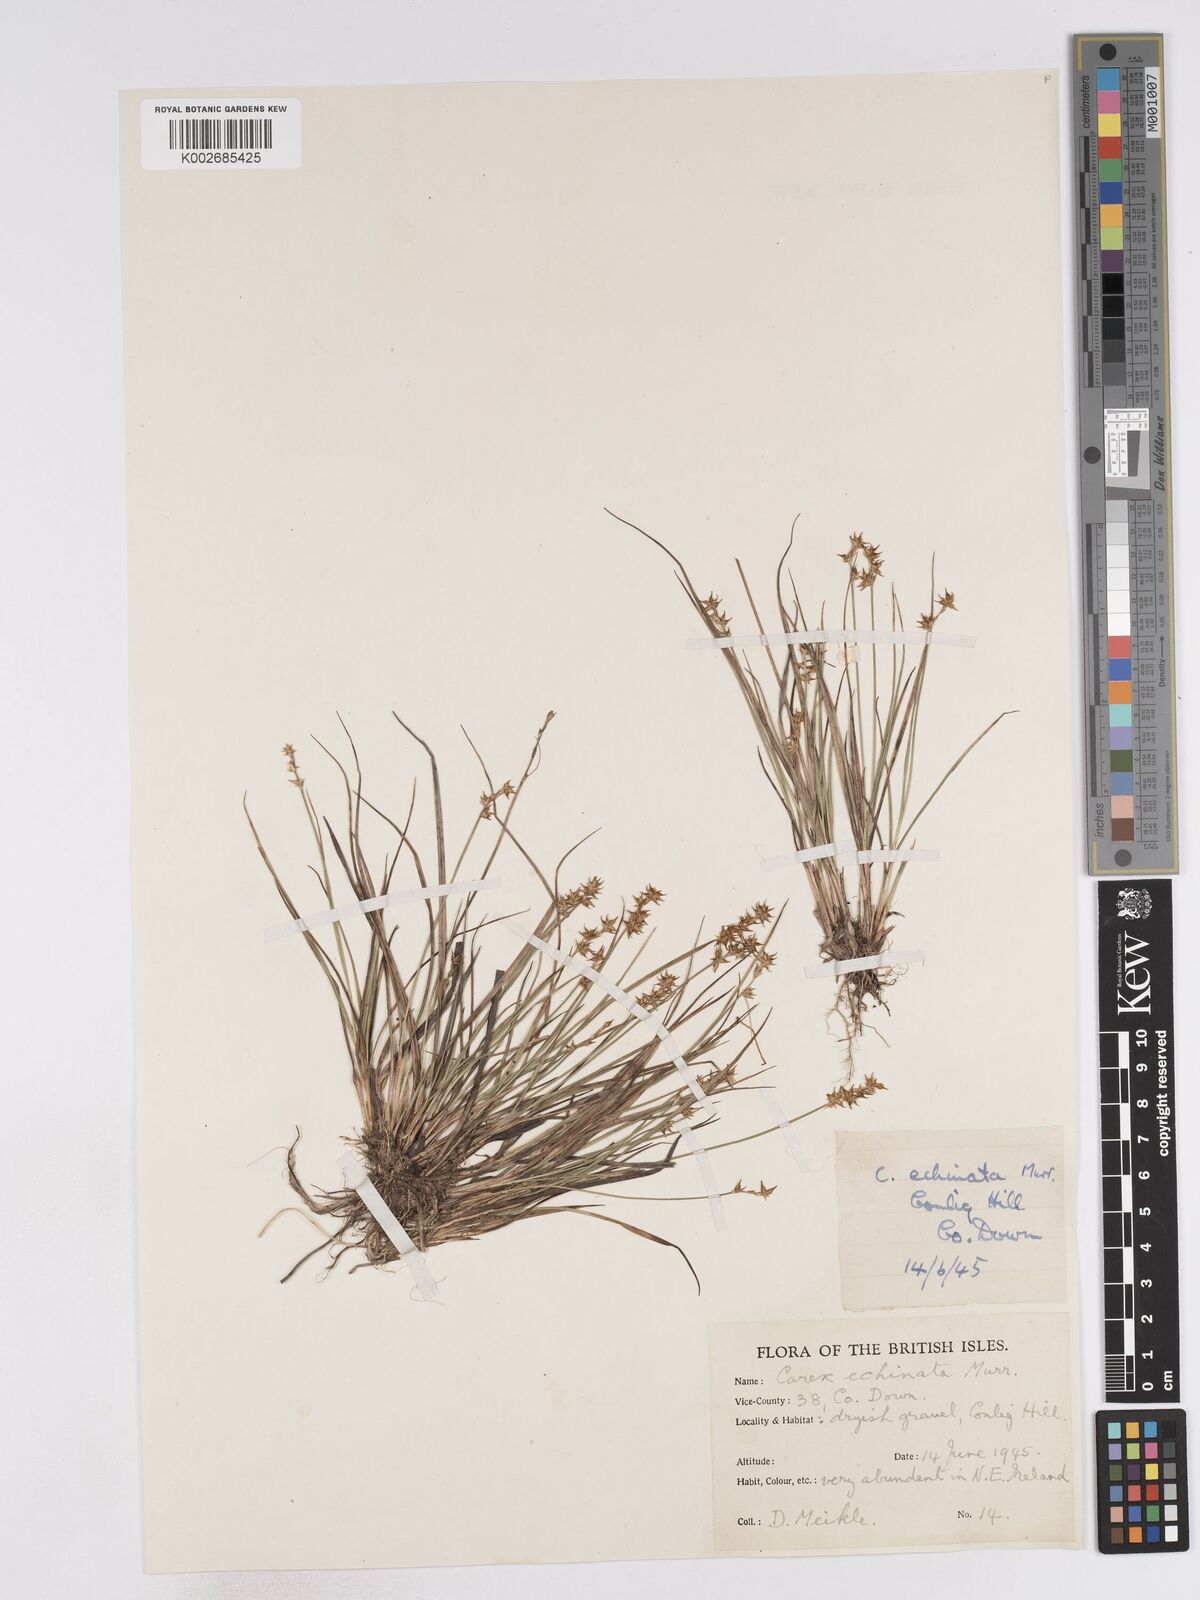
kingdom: Plantae
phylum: Tracheophyta
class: Liliopsida
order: Poales
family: Cyperaceae
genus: Carex
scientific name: Carex echinata
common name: Star sedge
